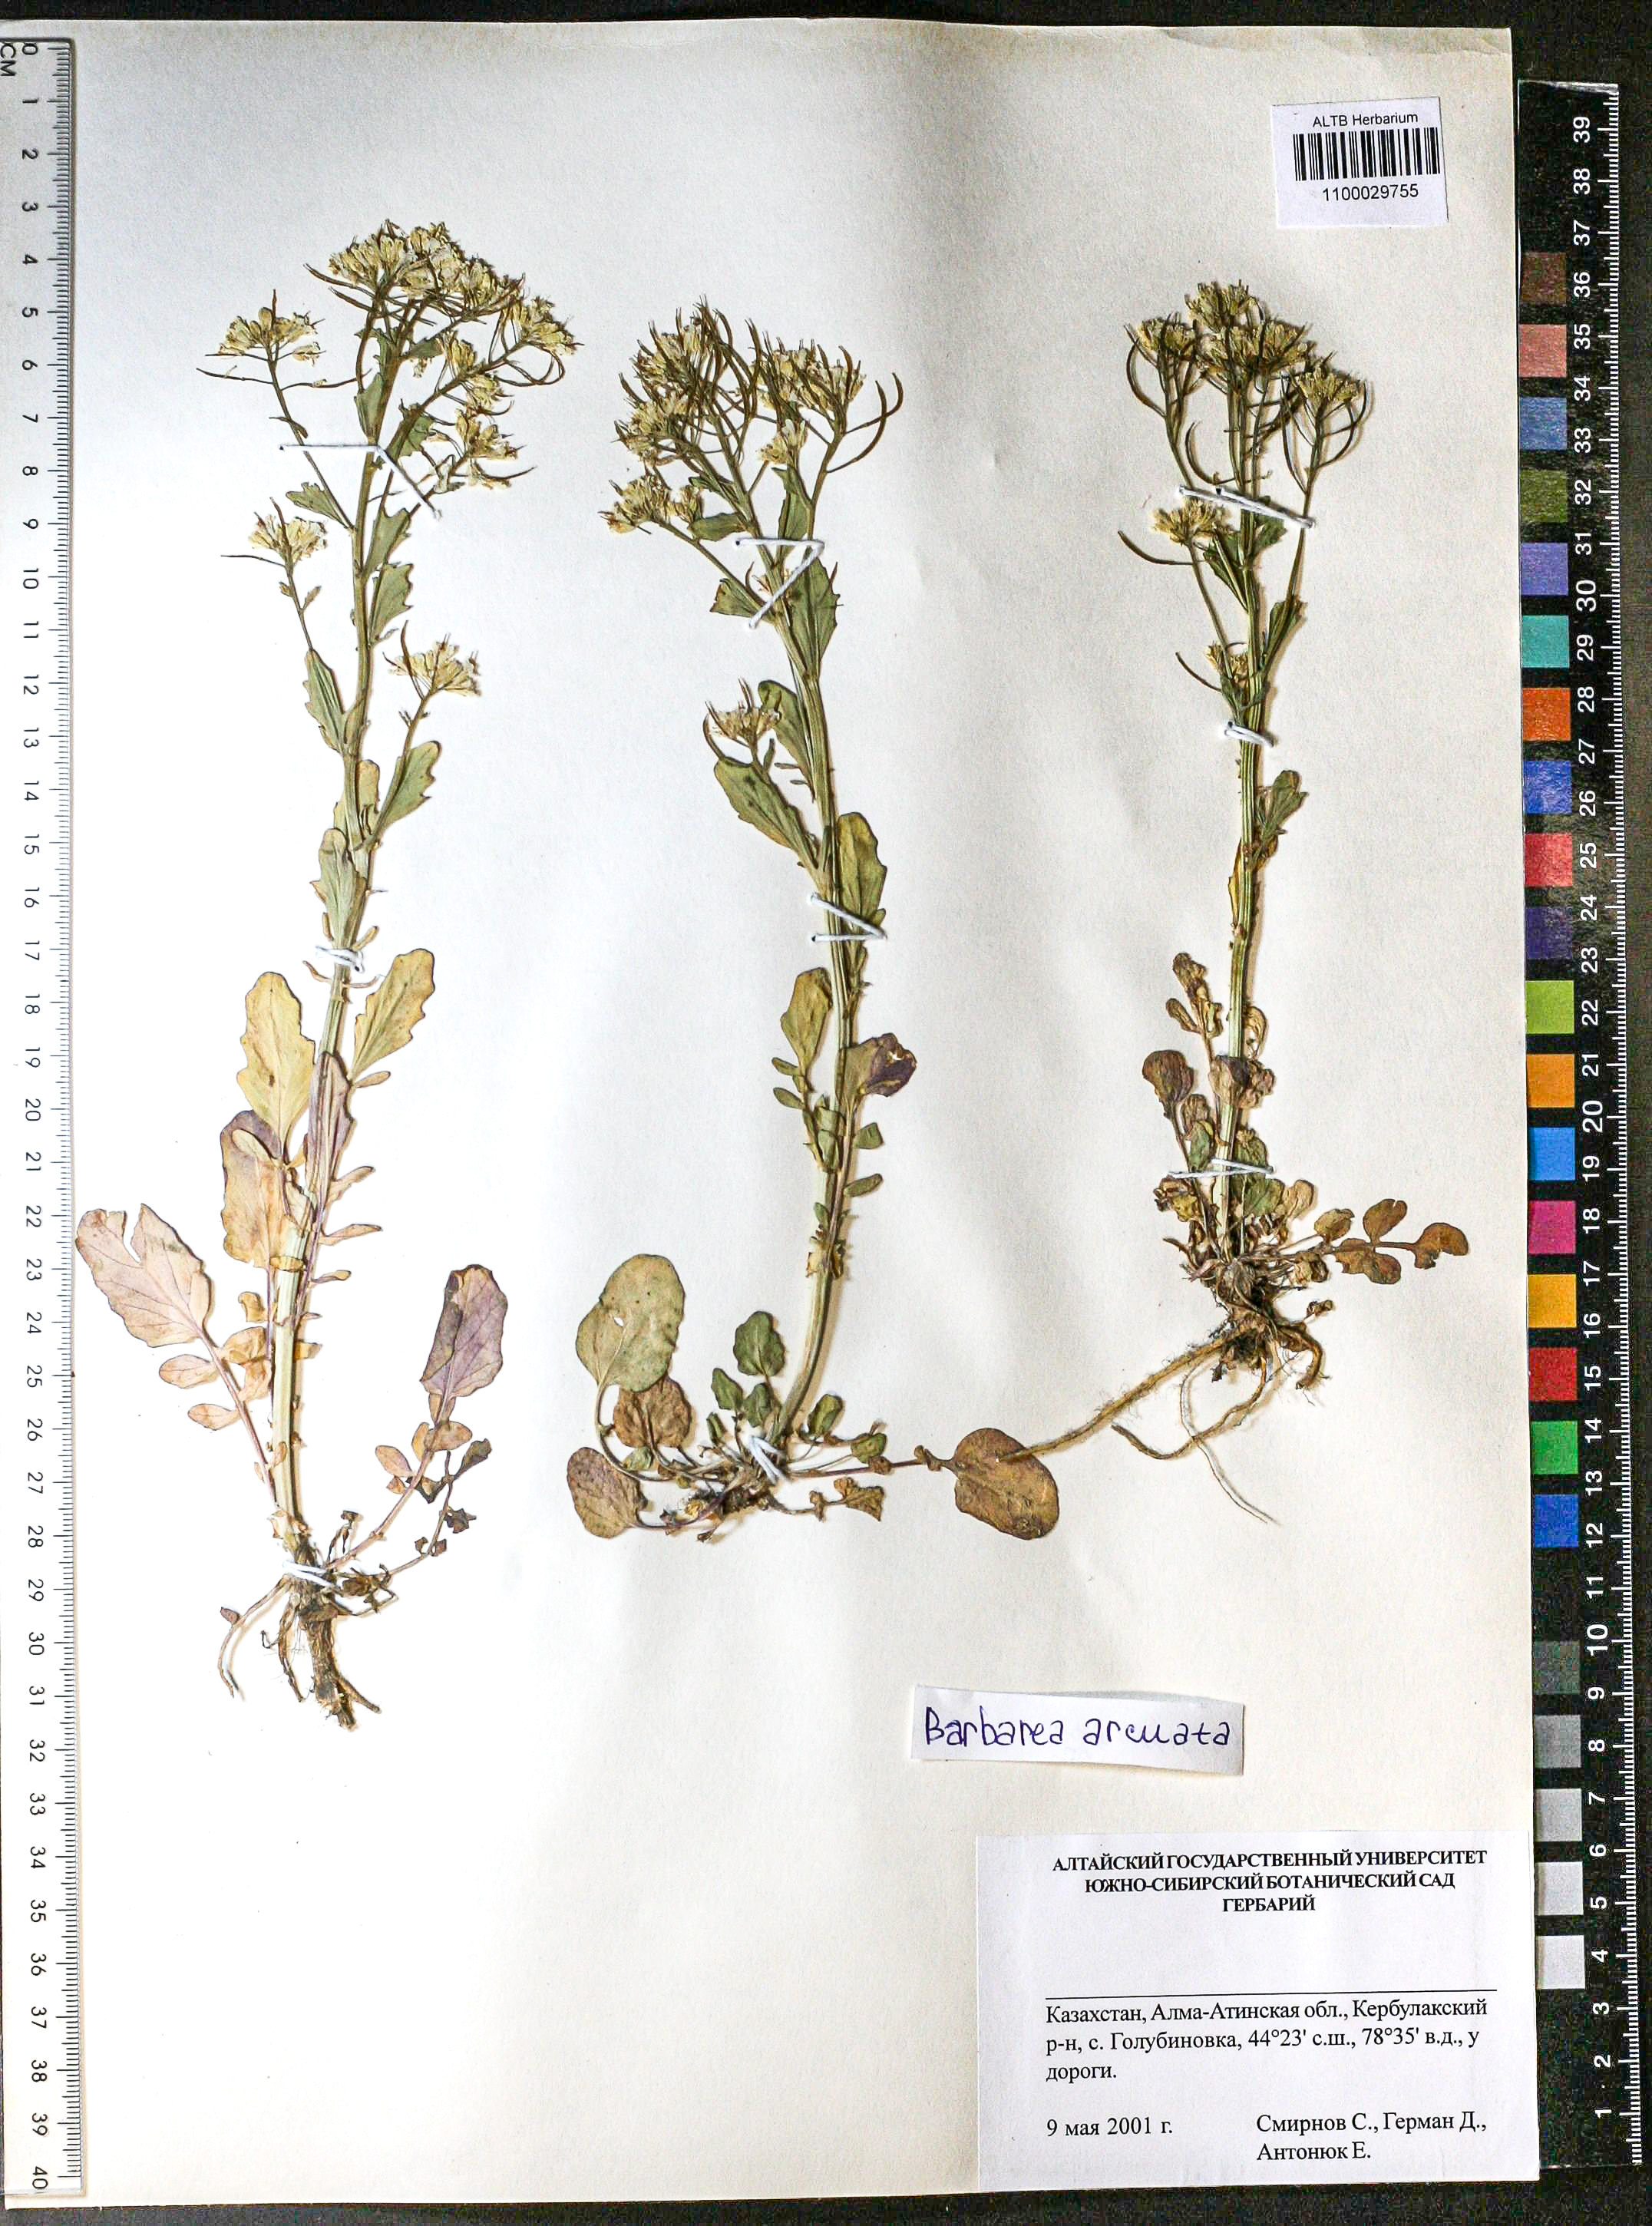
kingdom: Plantae
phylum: Tracheophyta
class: Magnoliopsida
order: Brassicales
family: Brassicaceae
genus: Barbarea
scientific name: Barbarea vulgaris
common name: Cressy-greens
